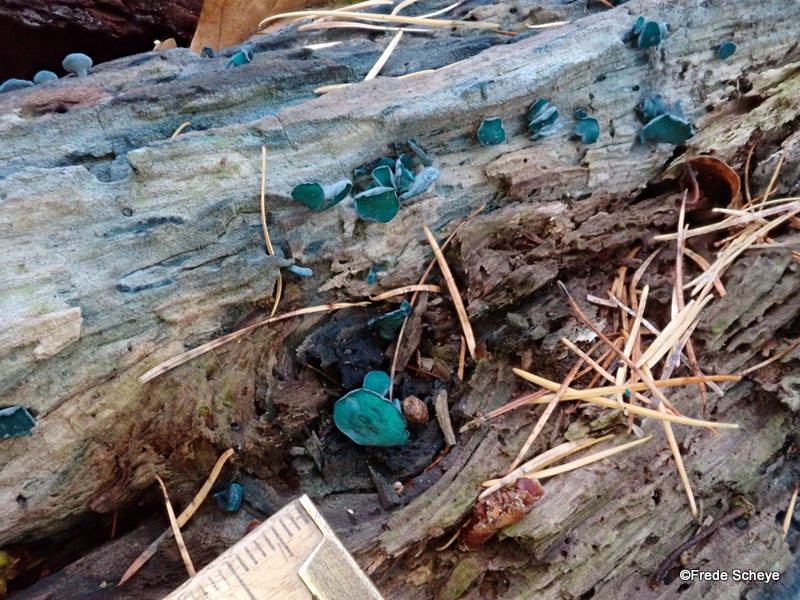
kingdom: Fungi
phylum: Ascomycota
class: Leotiomycetes
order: Helotiales
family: Chlorociboriaceae
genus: Chlorociboria
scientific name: Chlorociboria aeruginascens
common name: almindelig grønskive
